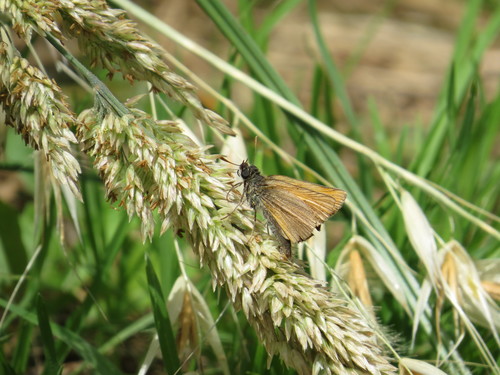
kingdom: Animalia
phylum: Arthropoda
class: Insecta
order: Lepidoptera
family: Hesperiidae
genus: Thymelicus
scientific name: Thymelicus sylvestris
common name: Small skipper
